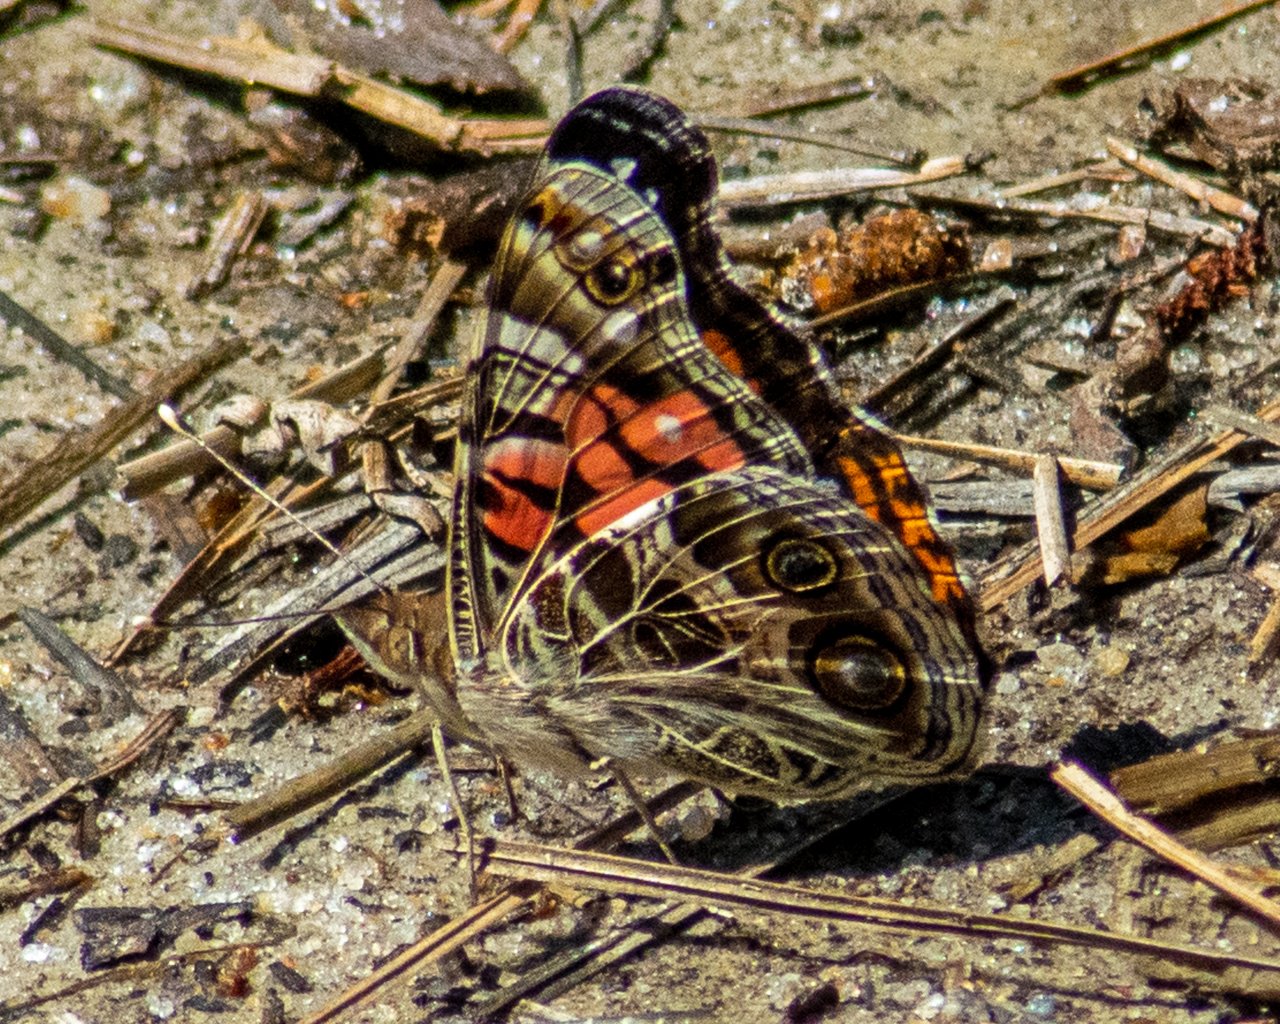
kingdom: Animalia
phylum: Arthropoda
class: Insecta
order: Lepidoptera
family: Nymphalidae
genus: Vanessa
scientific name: Vanessa virginiensis
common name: American Lady
